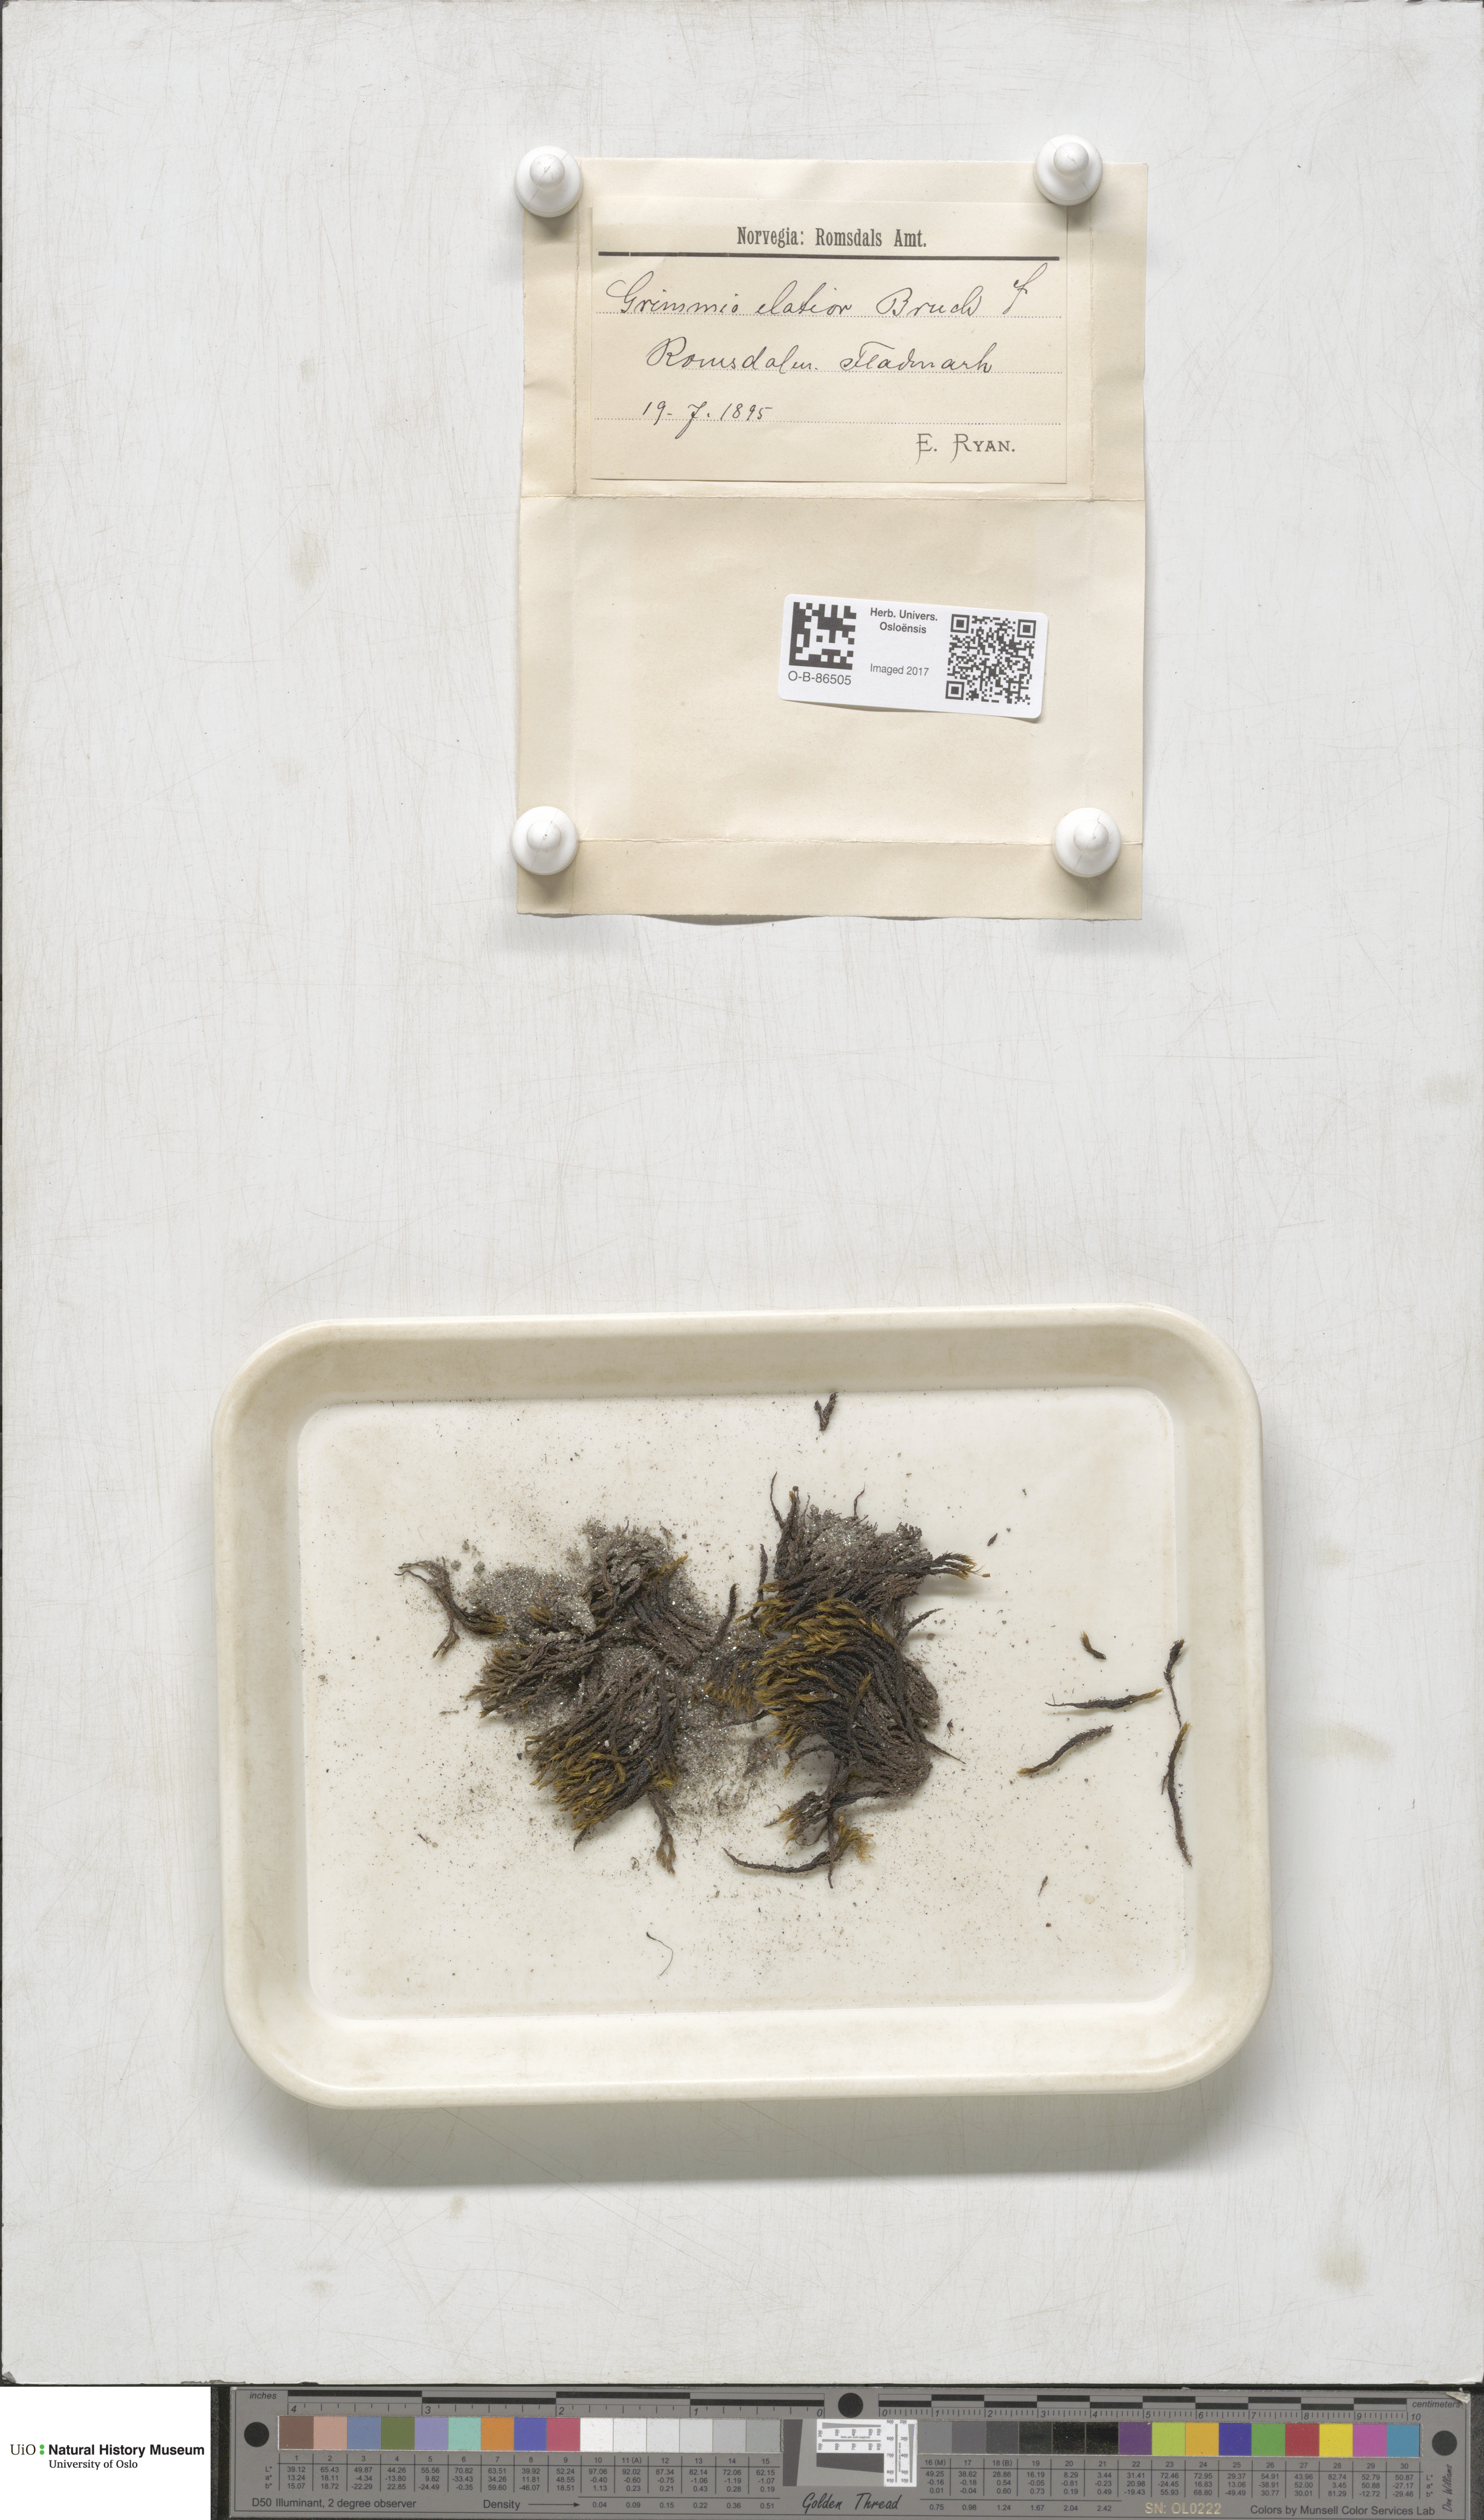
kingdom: Plantae
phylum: Bryophyta
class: Bryopsida
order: Grimmiales
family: Grimmiaceae
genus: Grimmia
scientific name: Grimmia elatior
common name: Large grimmia
